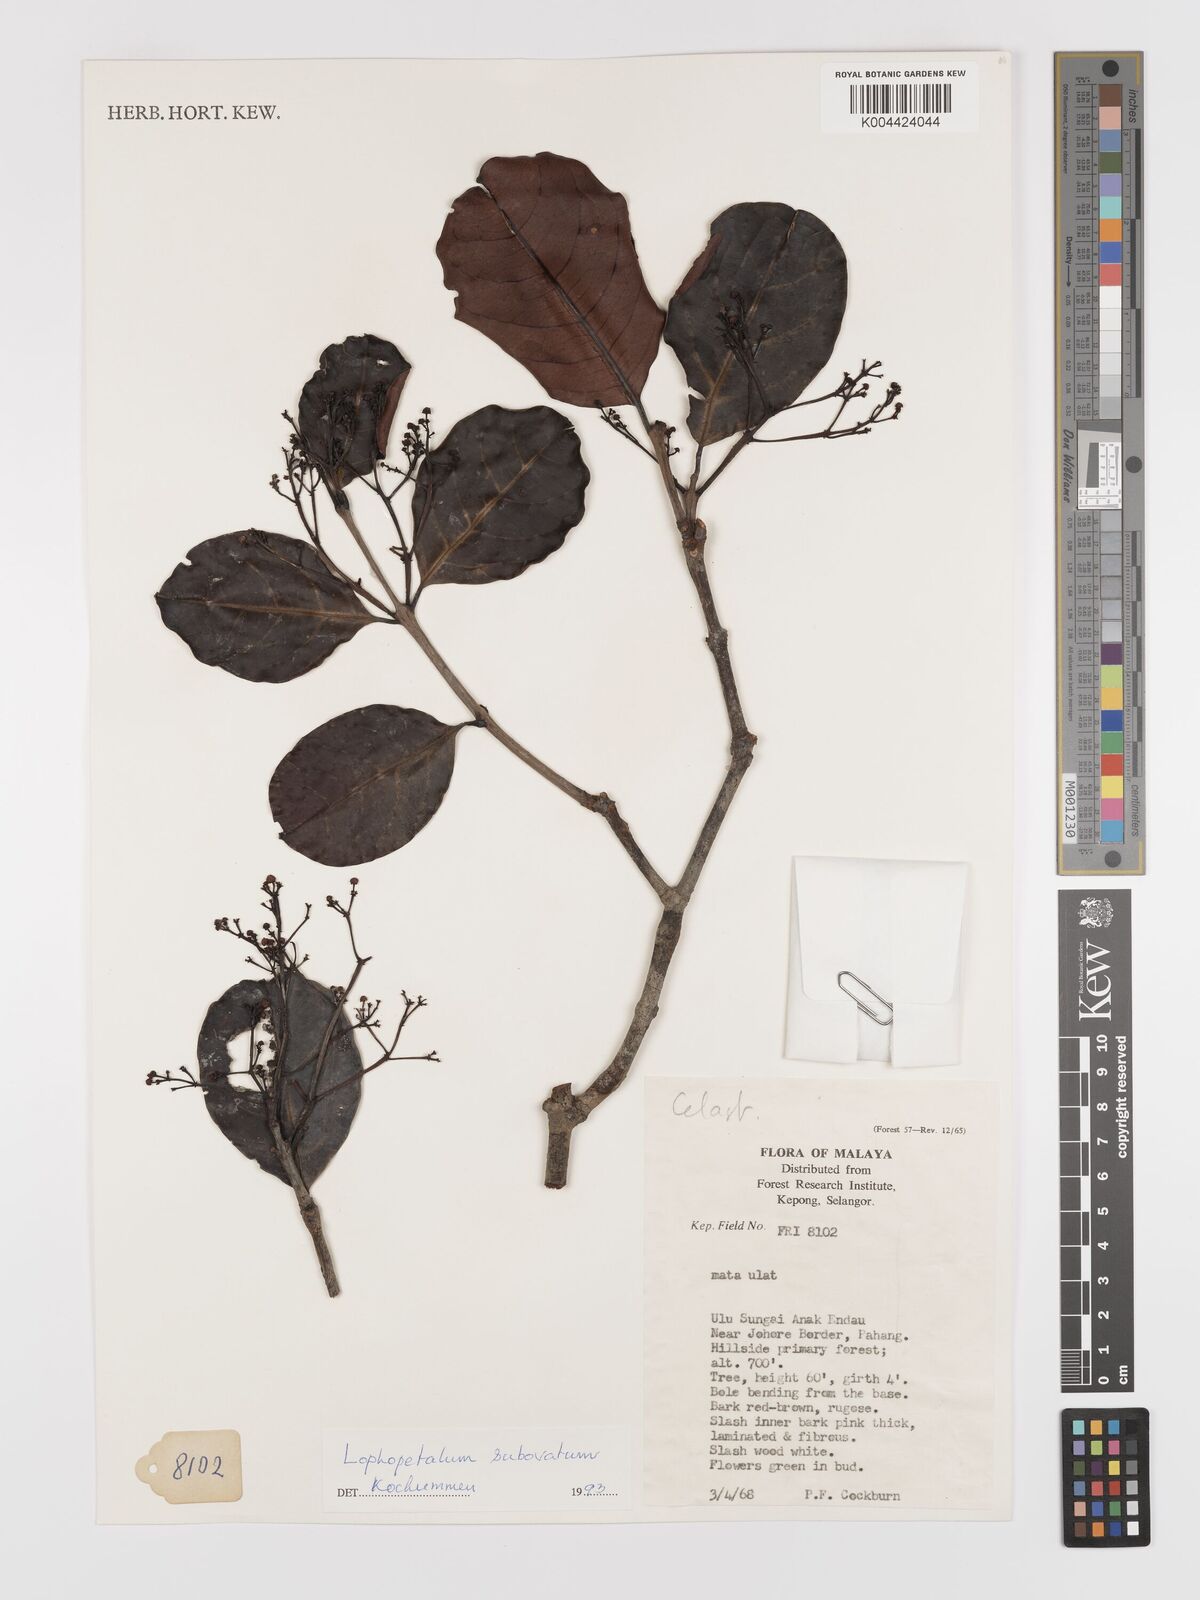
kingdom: Plantae
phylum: Tracheophyta
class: Magnoliopsida
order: Celastrales
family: Celastraceae
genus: Lophopetalum
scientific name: Lophopetalum subobovatum
